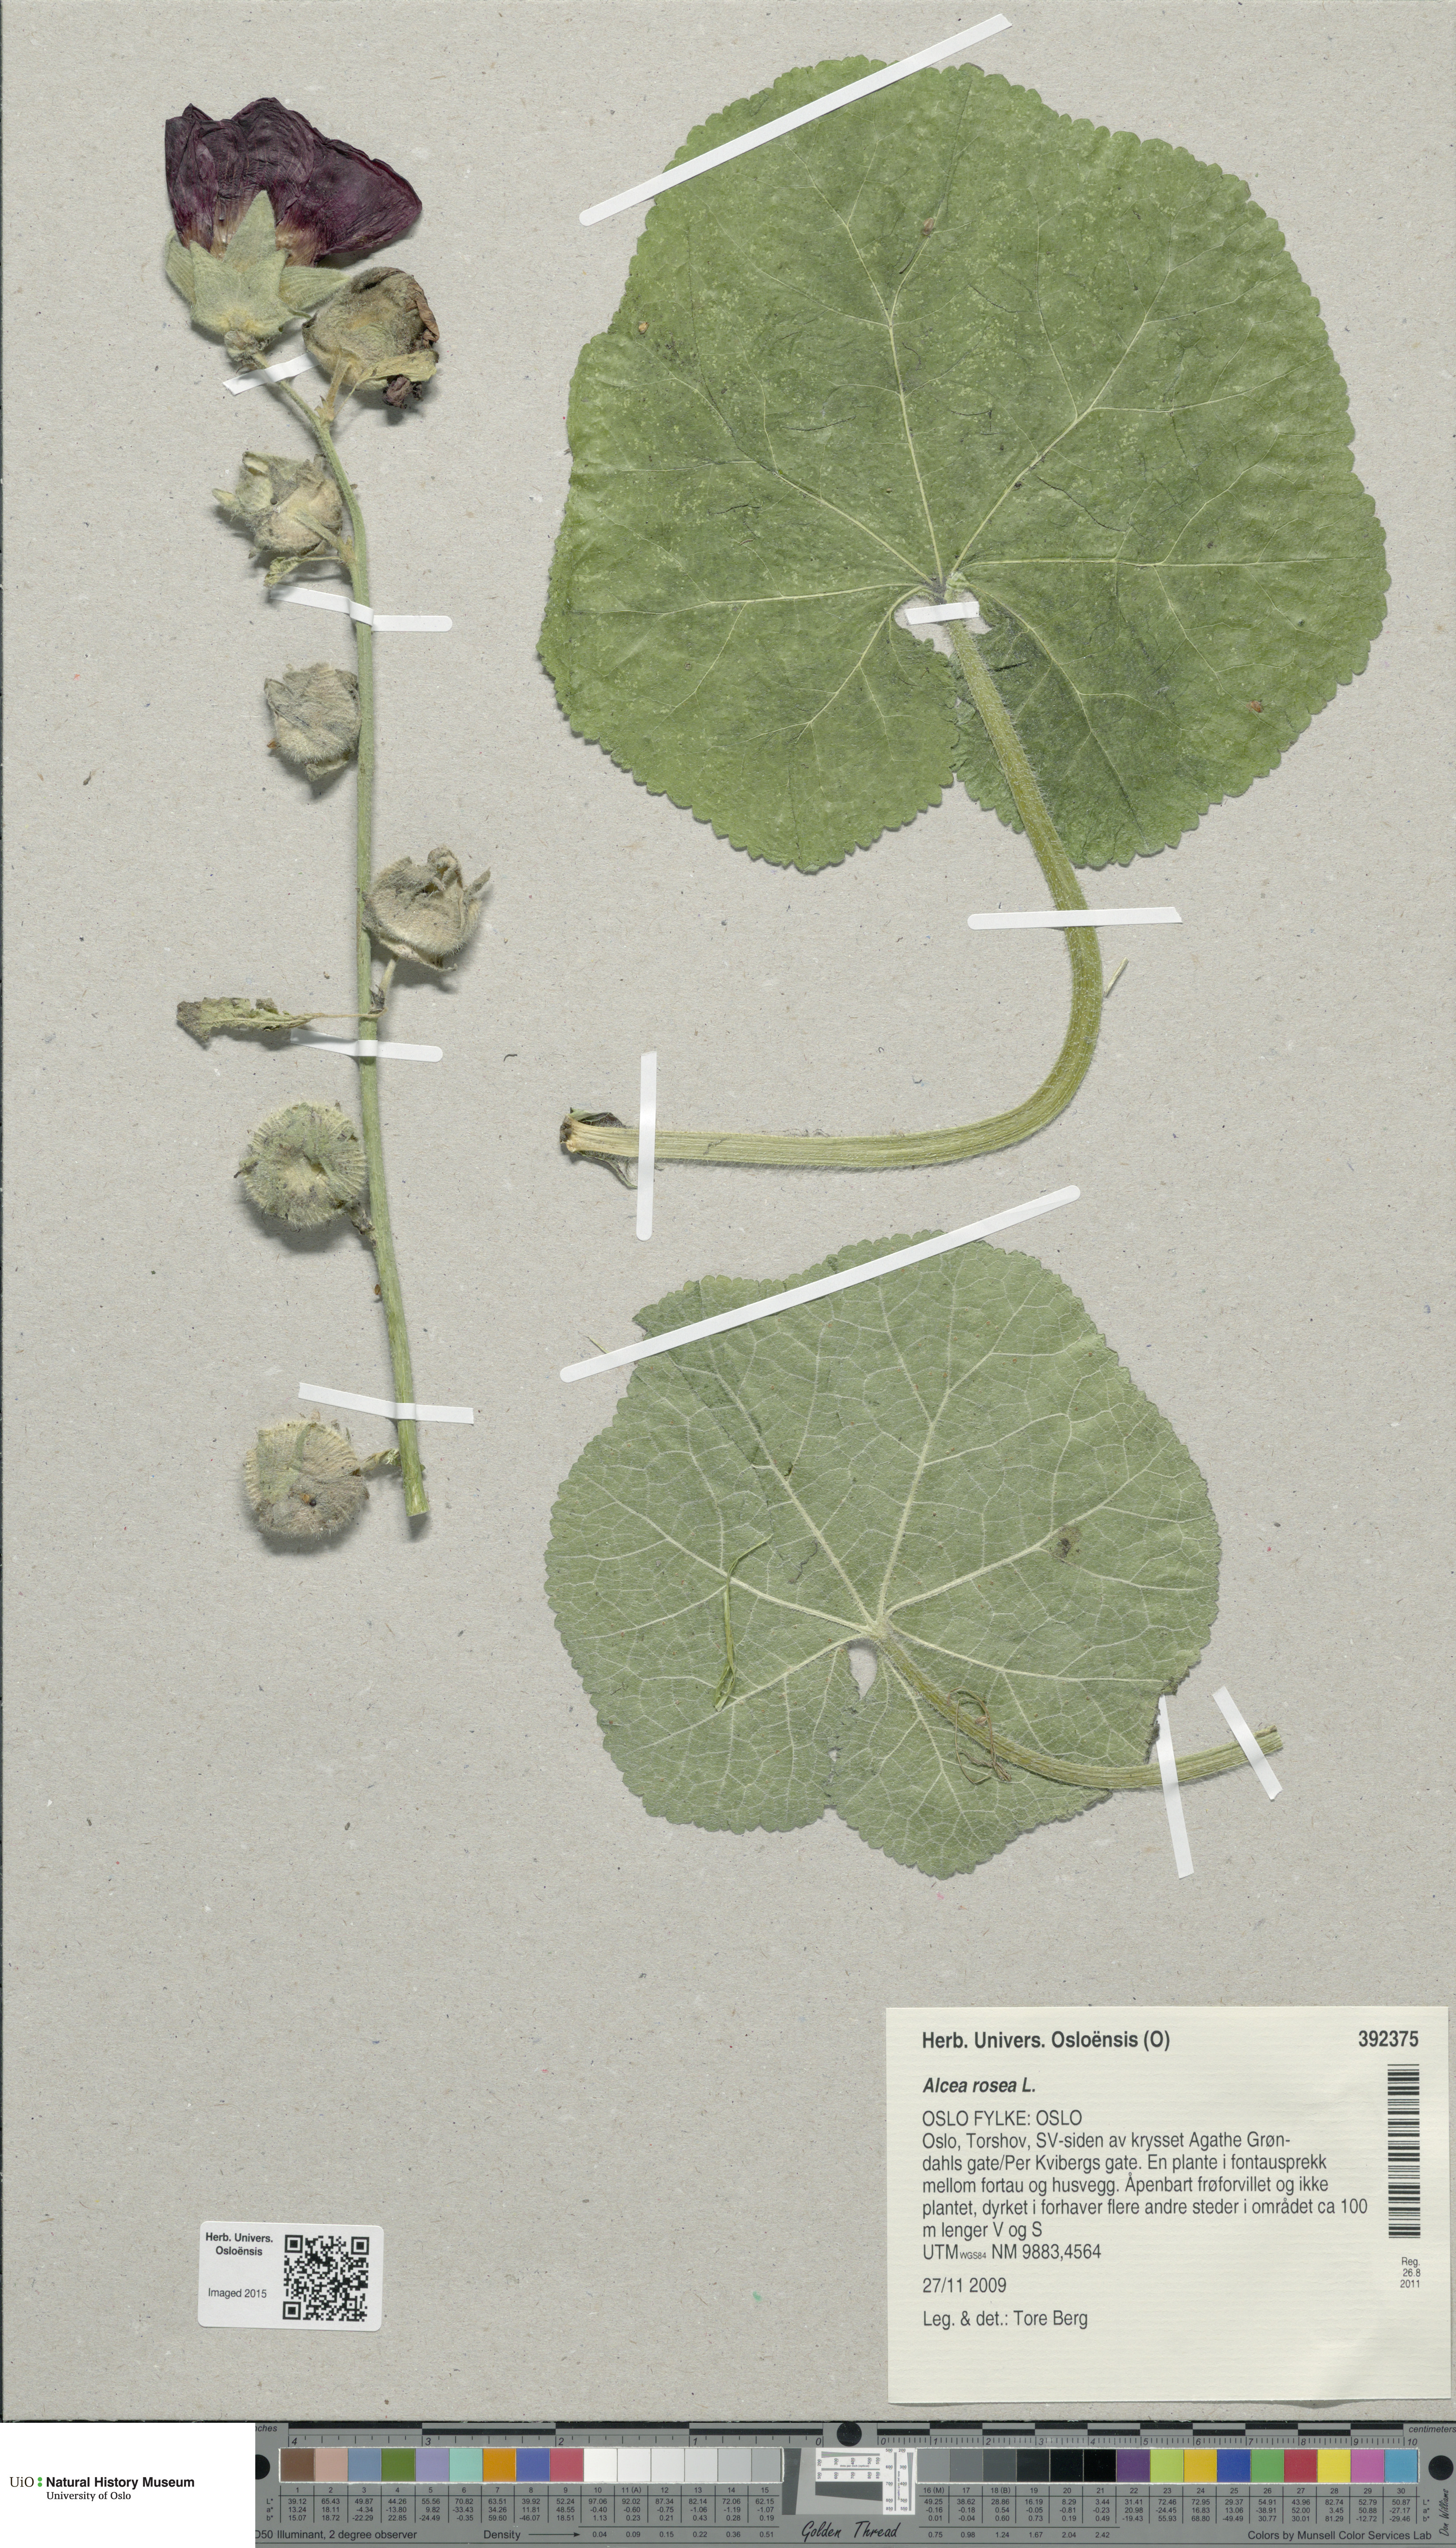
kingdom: Plantae
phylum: Tracheophyta
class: Magnoliopsida
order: Malvales
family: Malvaceae
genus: Alcea
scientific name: Alcea rosea
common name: Hollyhock
